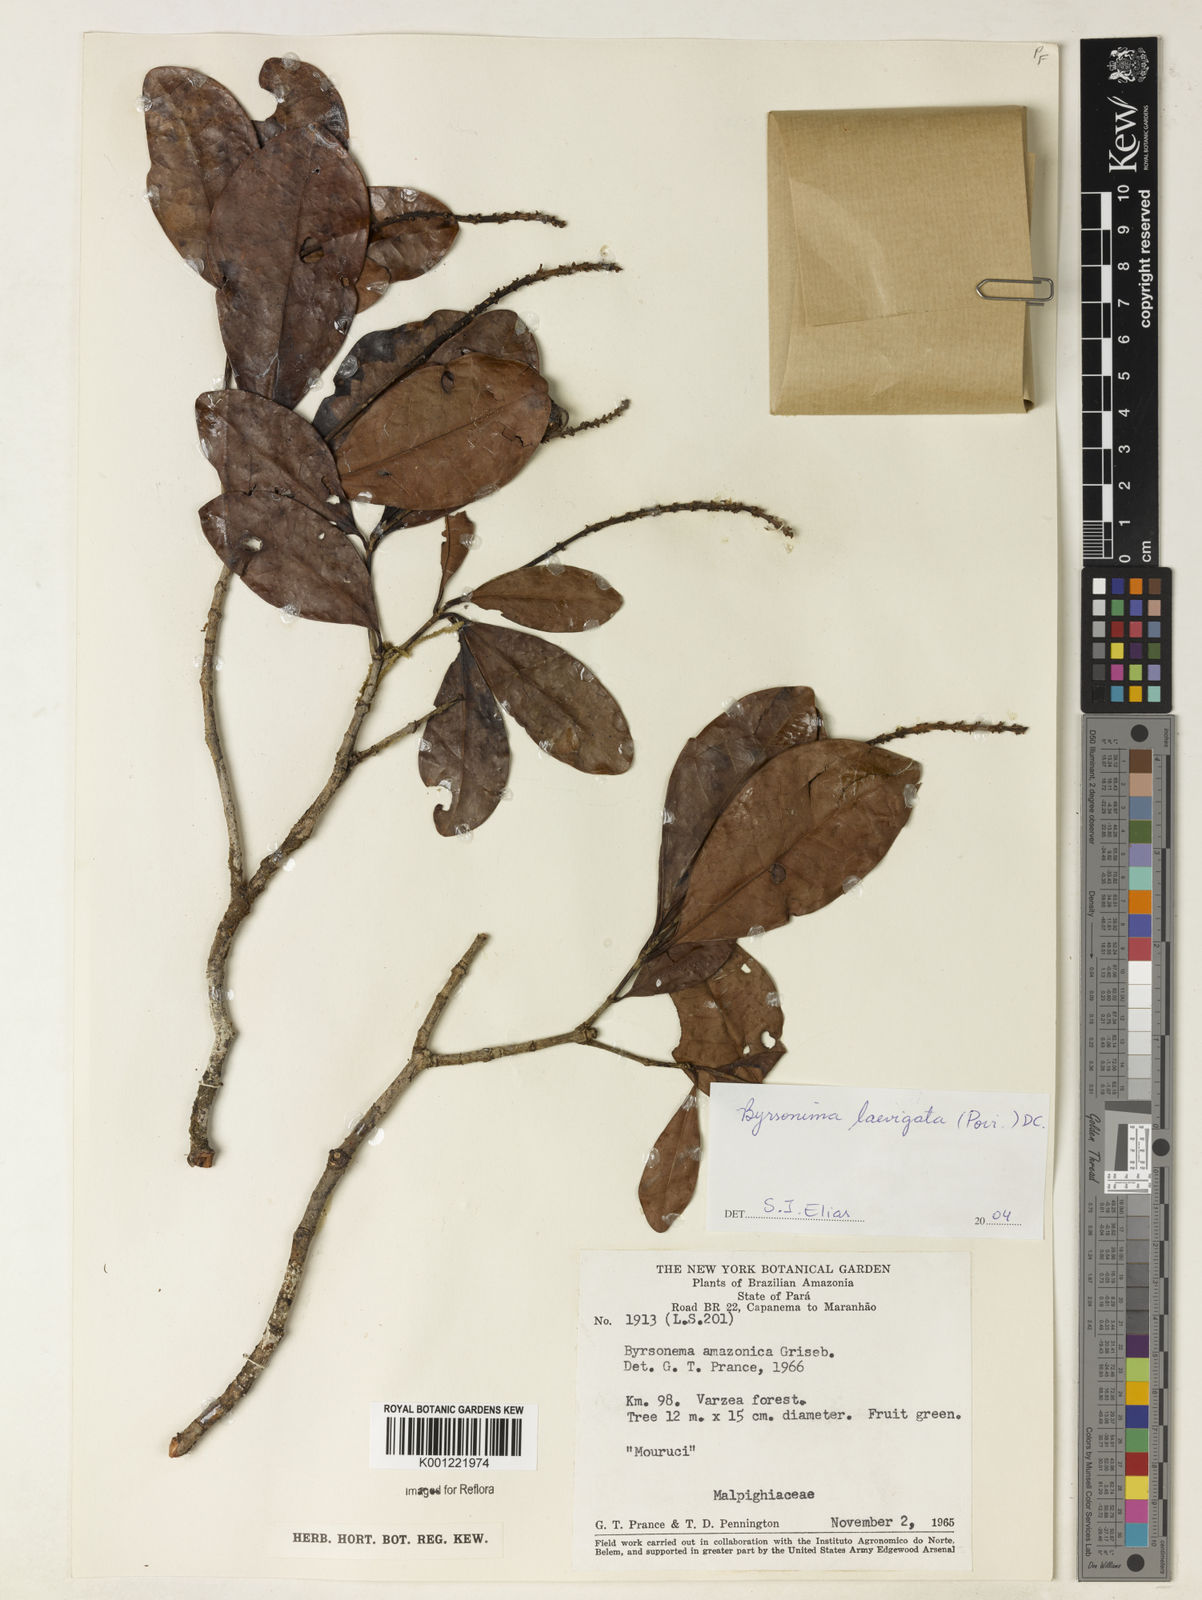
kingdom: Plantae
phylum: Tracheophyta
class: Magnoliopsida
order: Malpighiales
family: Malpighiaceae
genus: Byrsonima
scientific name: Byrsonima laevigata
